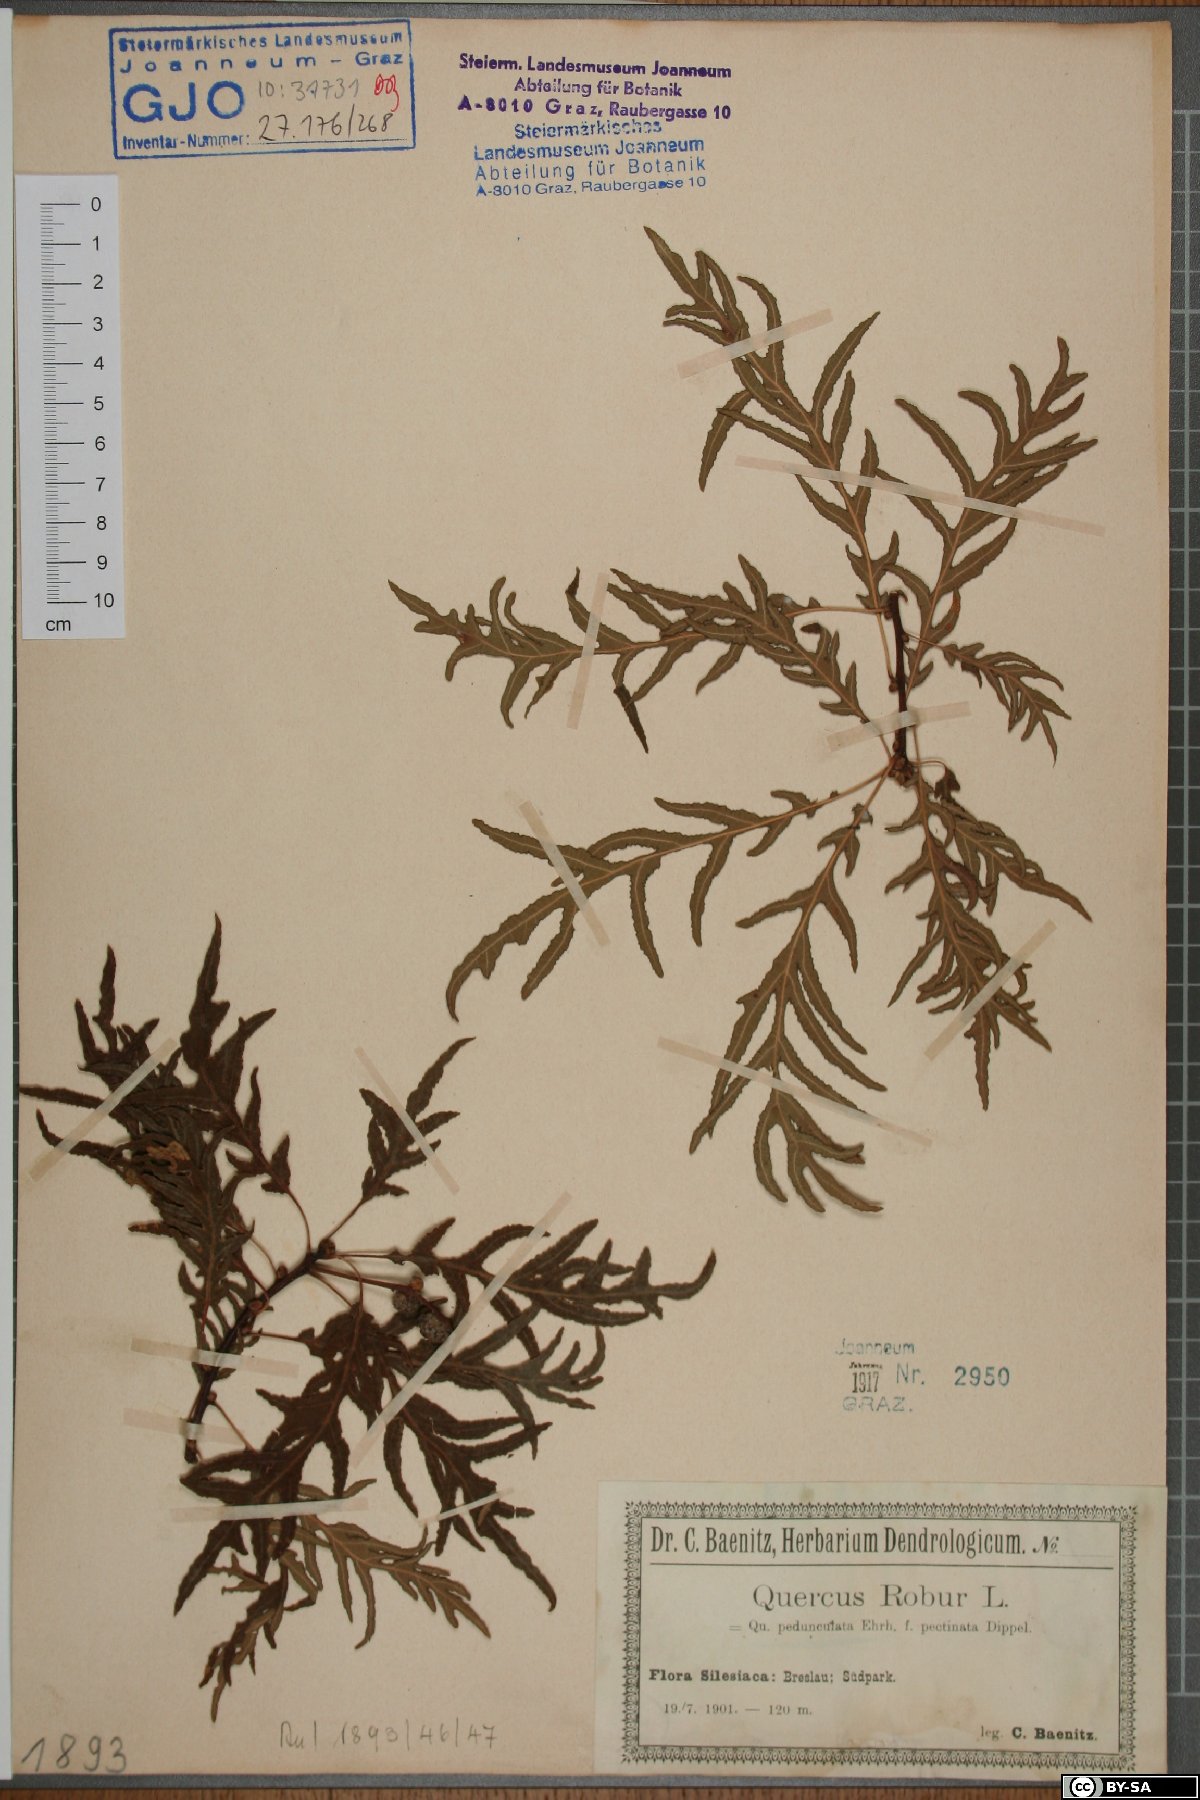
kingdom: Plantae
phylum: Tracheophyta
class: Magnoliopsida
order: Fagales
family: Fagaceae
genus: Quercus
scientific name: Quercus robur
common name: Pedunculate oak
